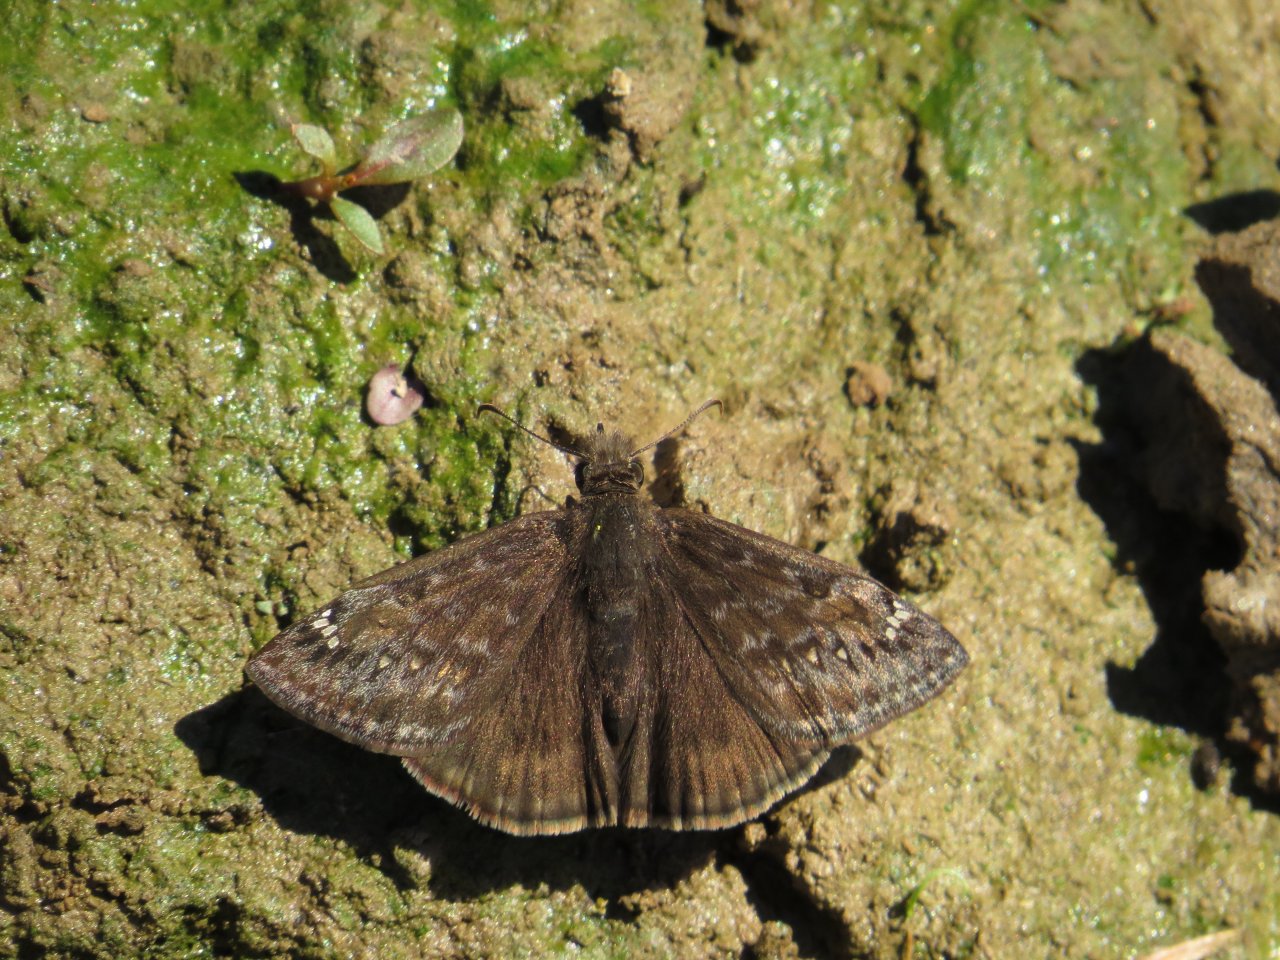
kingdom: Animalia
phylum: Arthropoda
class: Insecta
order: Lepidoptera
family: Hesperiidae
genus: Gesta
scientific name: Gesta
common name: Juvenal's Duskywing
